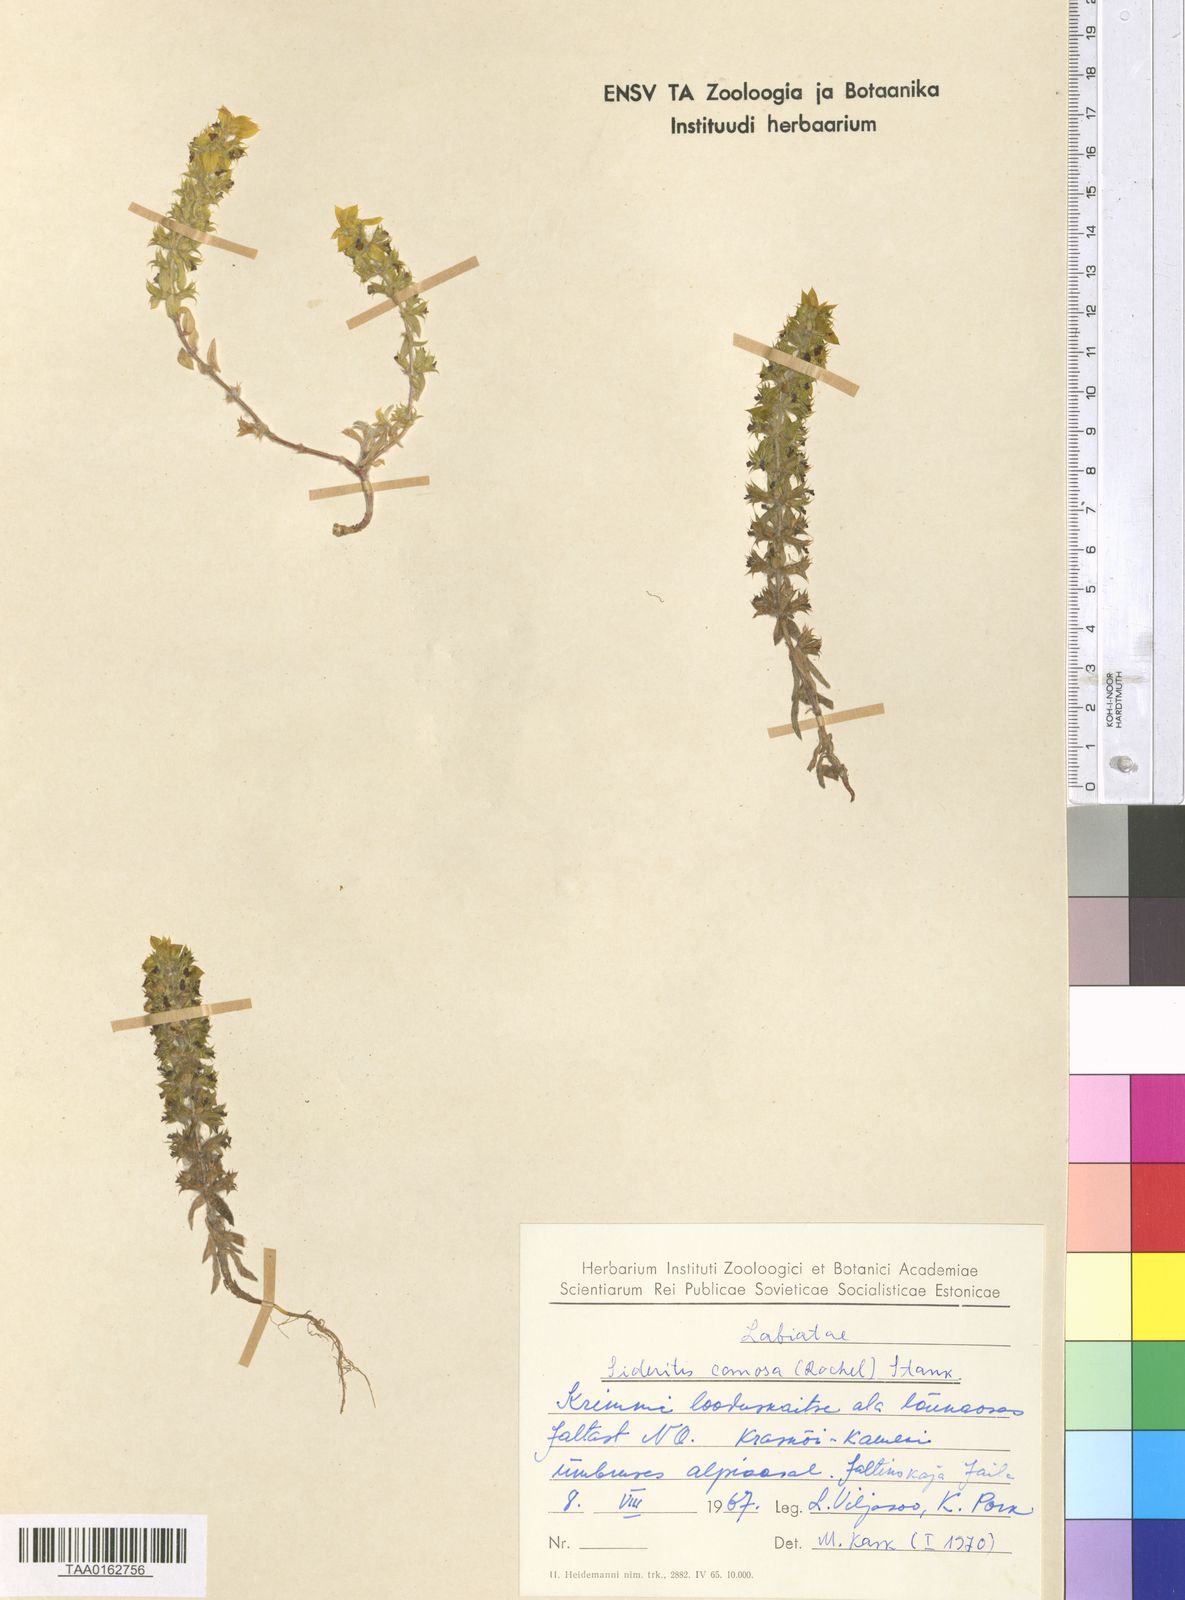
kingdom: Plantae
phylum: Tracheophyta
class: Magnoliopsida
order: Lamiales
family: Lamiaceae
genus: Sideritis
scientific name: Sideritis montana
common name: Mountain ironwort
